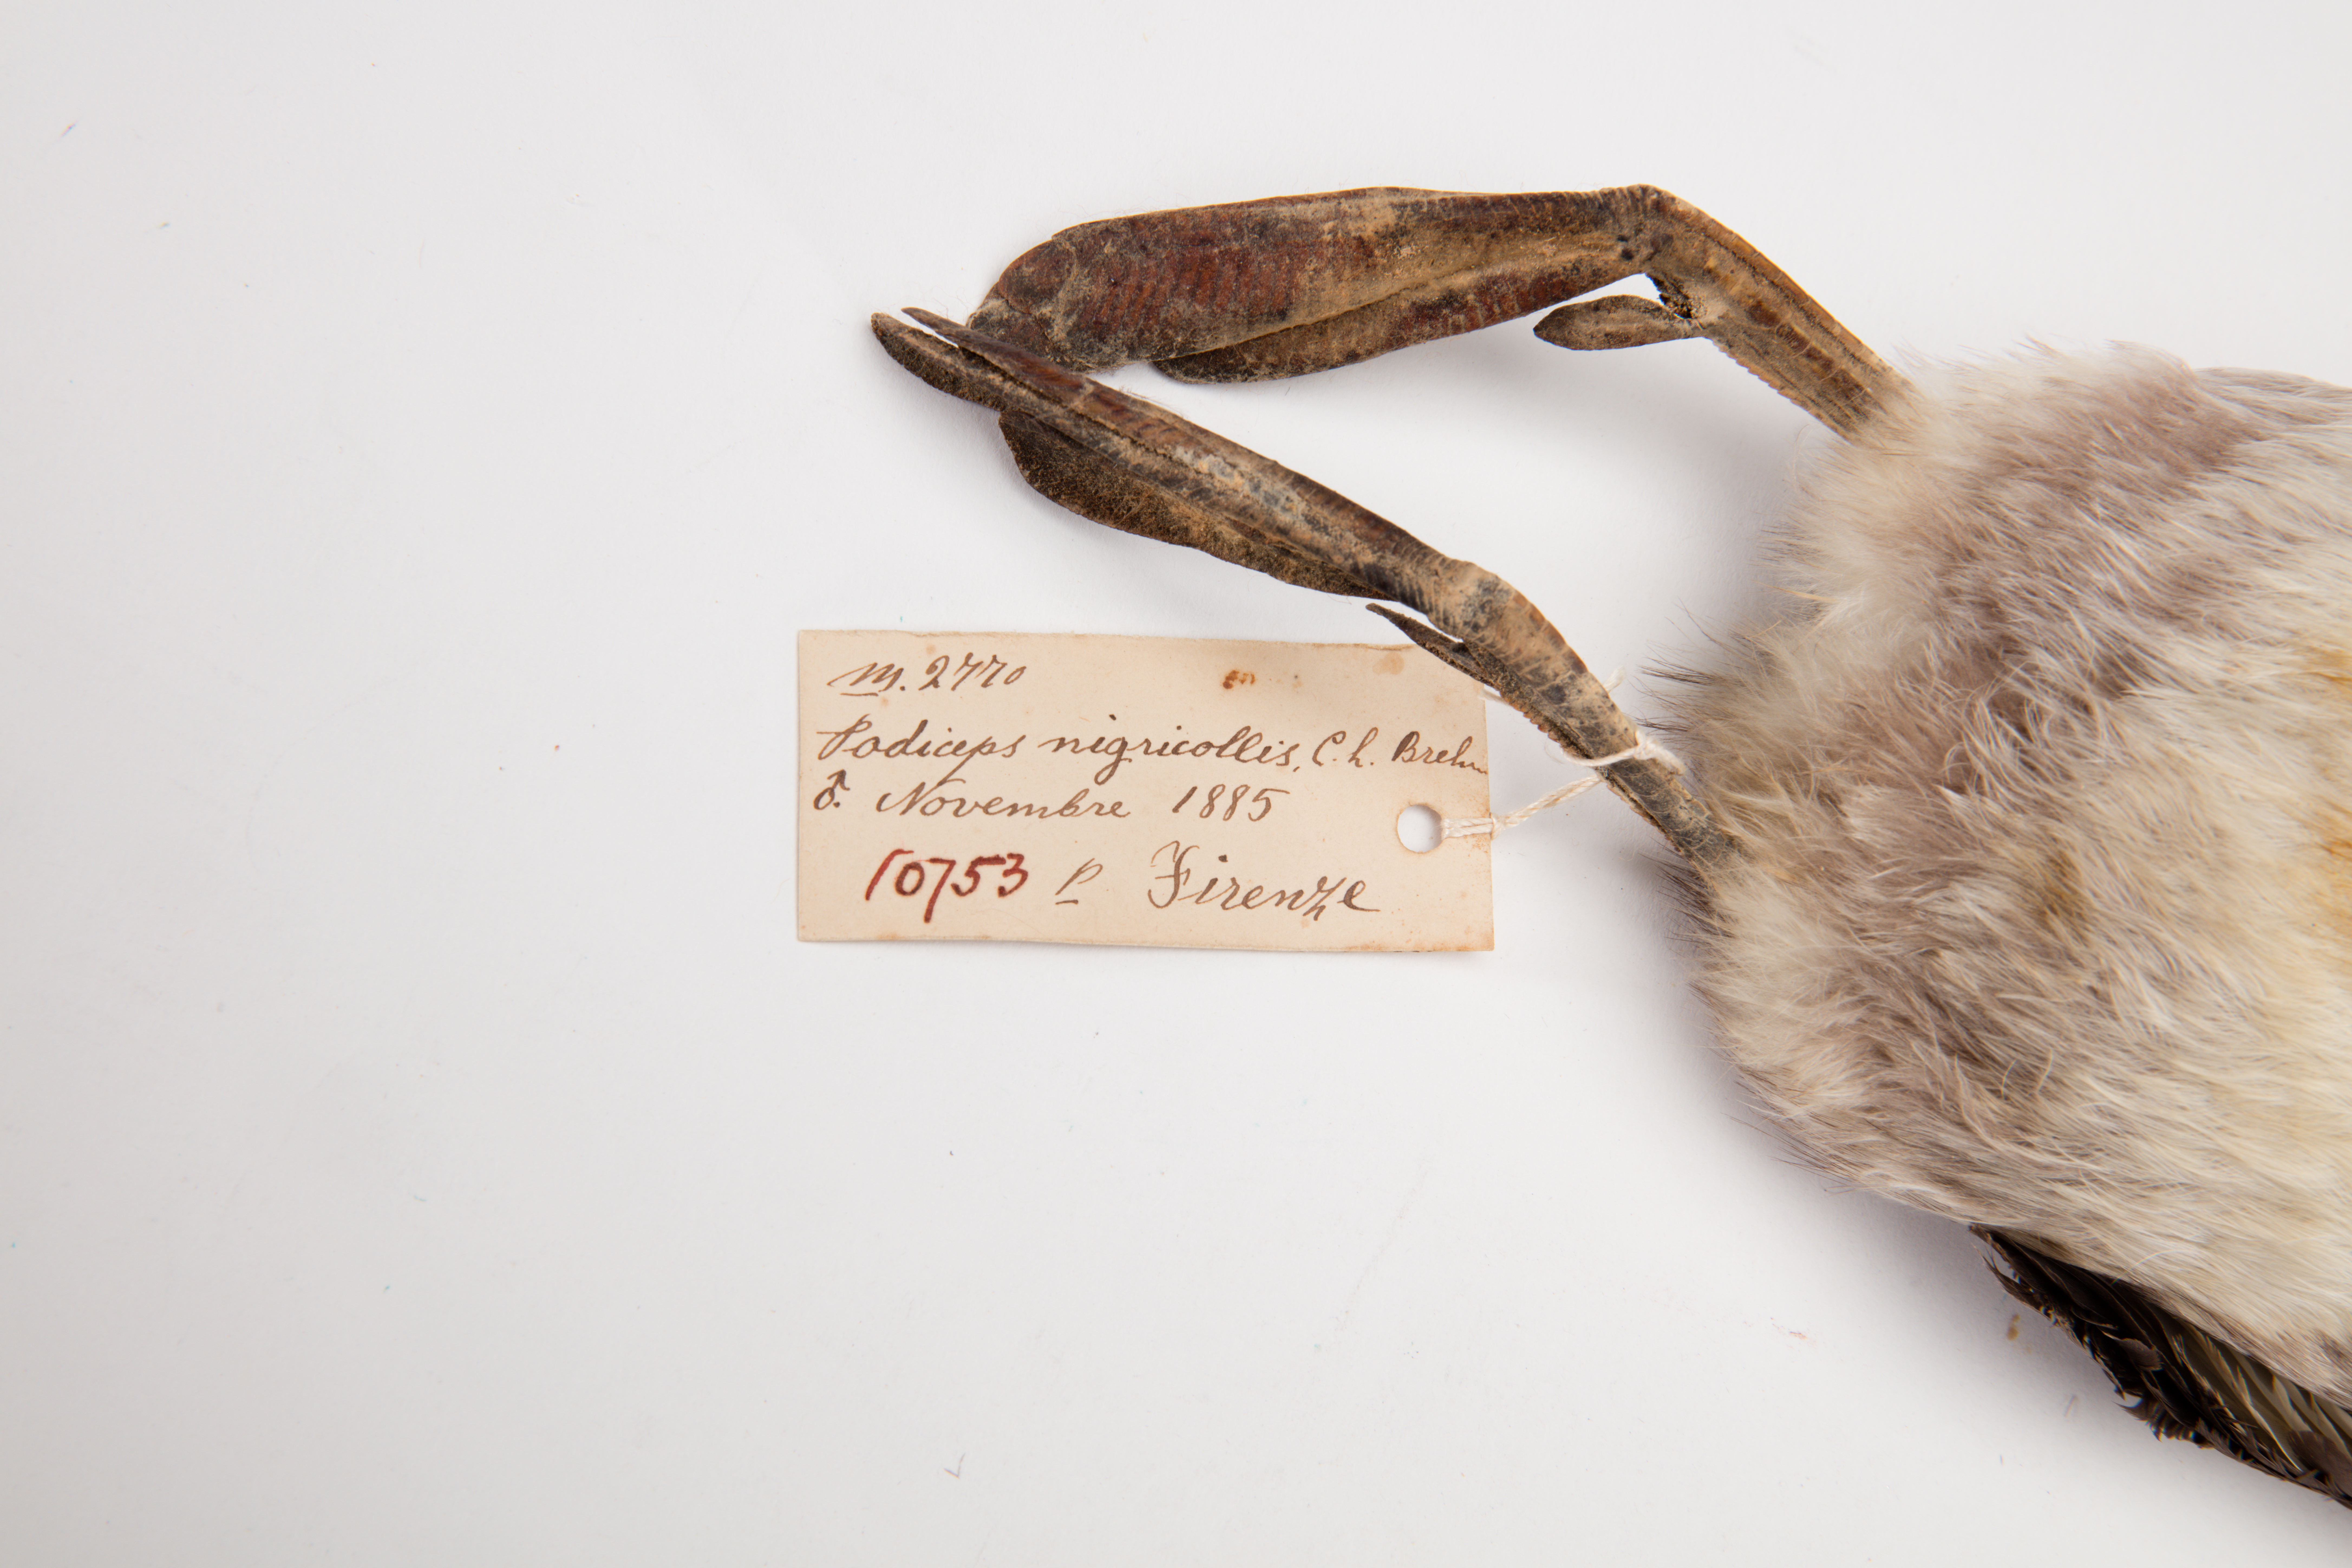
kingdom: Animalia
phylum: Chordata
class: Aves
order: Podicipediformes
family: Podicipedidae
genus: Podiceps
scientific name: Podiceps nigricollis
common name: Black-necked grebe
